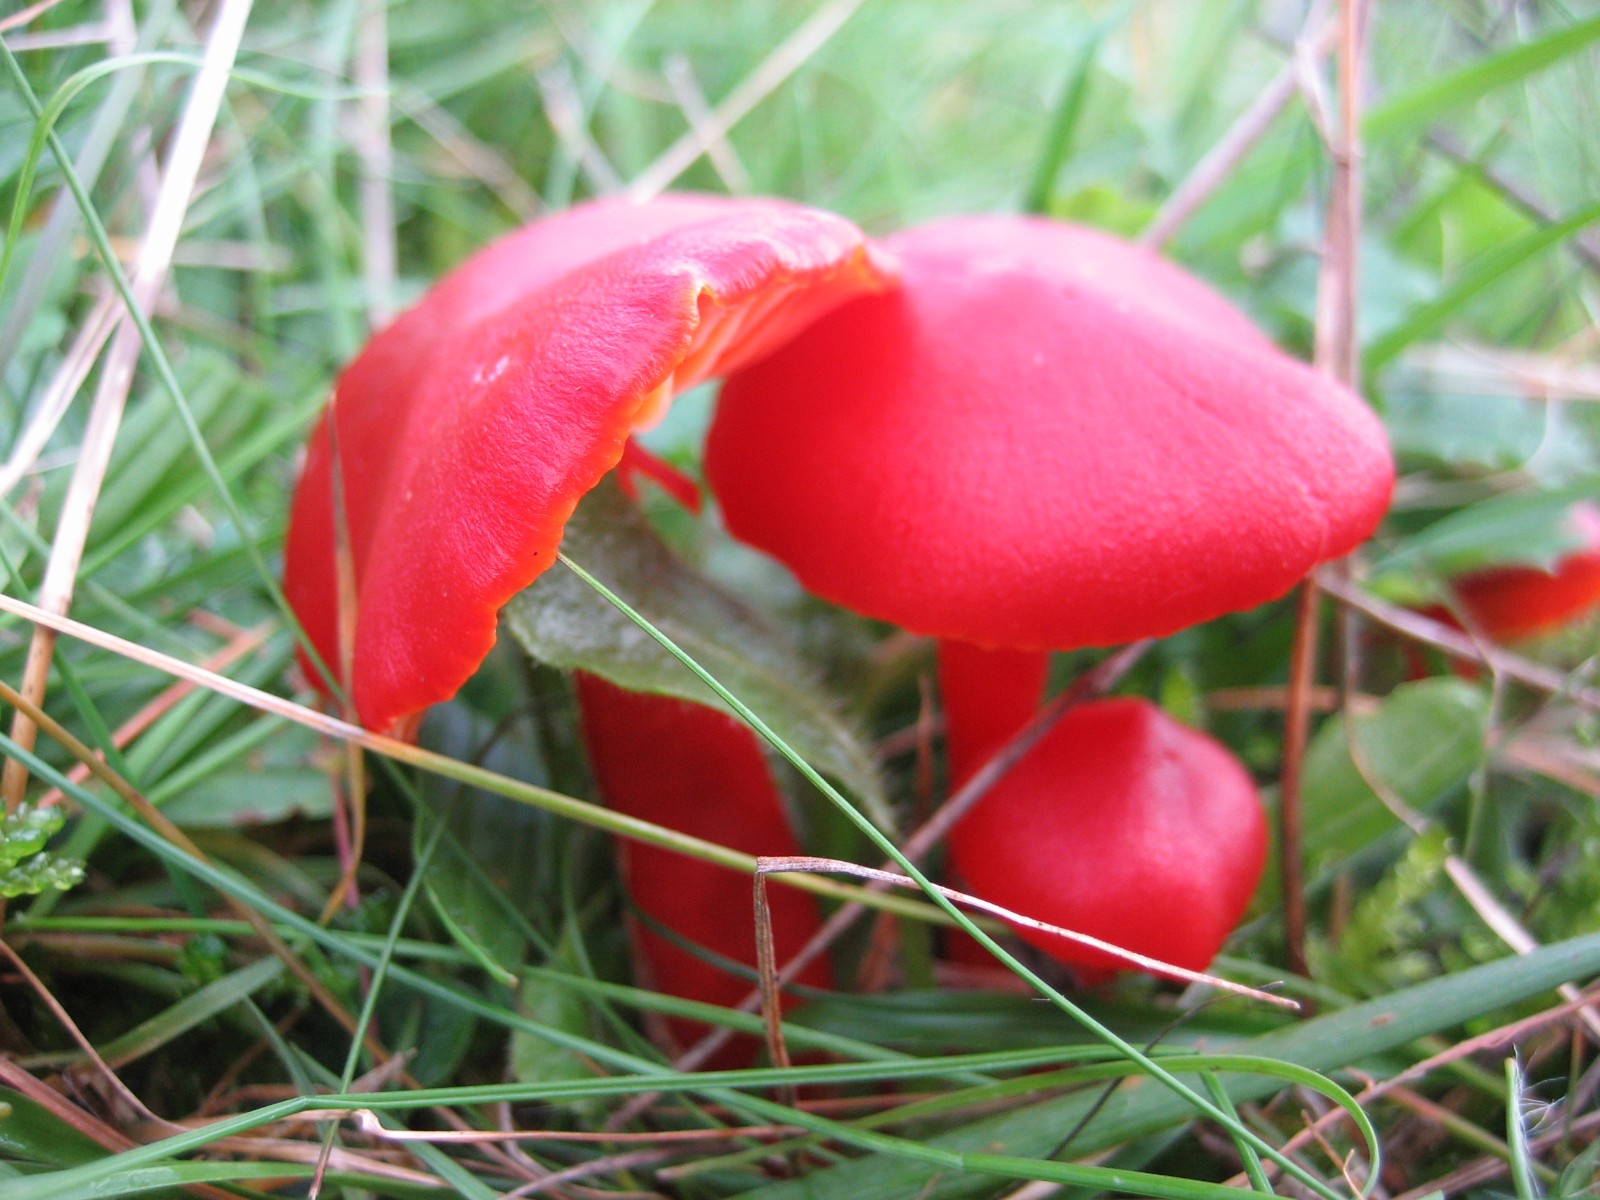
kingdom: Fungi
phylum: Basidiomycota
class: Agaricomycetes
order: Agaricales
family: Hygrophoraceae
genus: Hygrocybe
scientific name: Hygrocybe coccinea
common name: cinnober-vokshat
